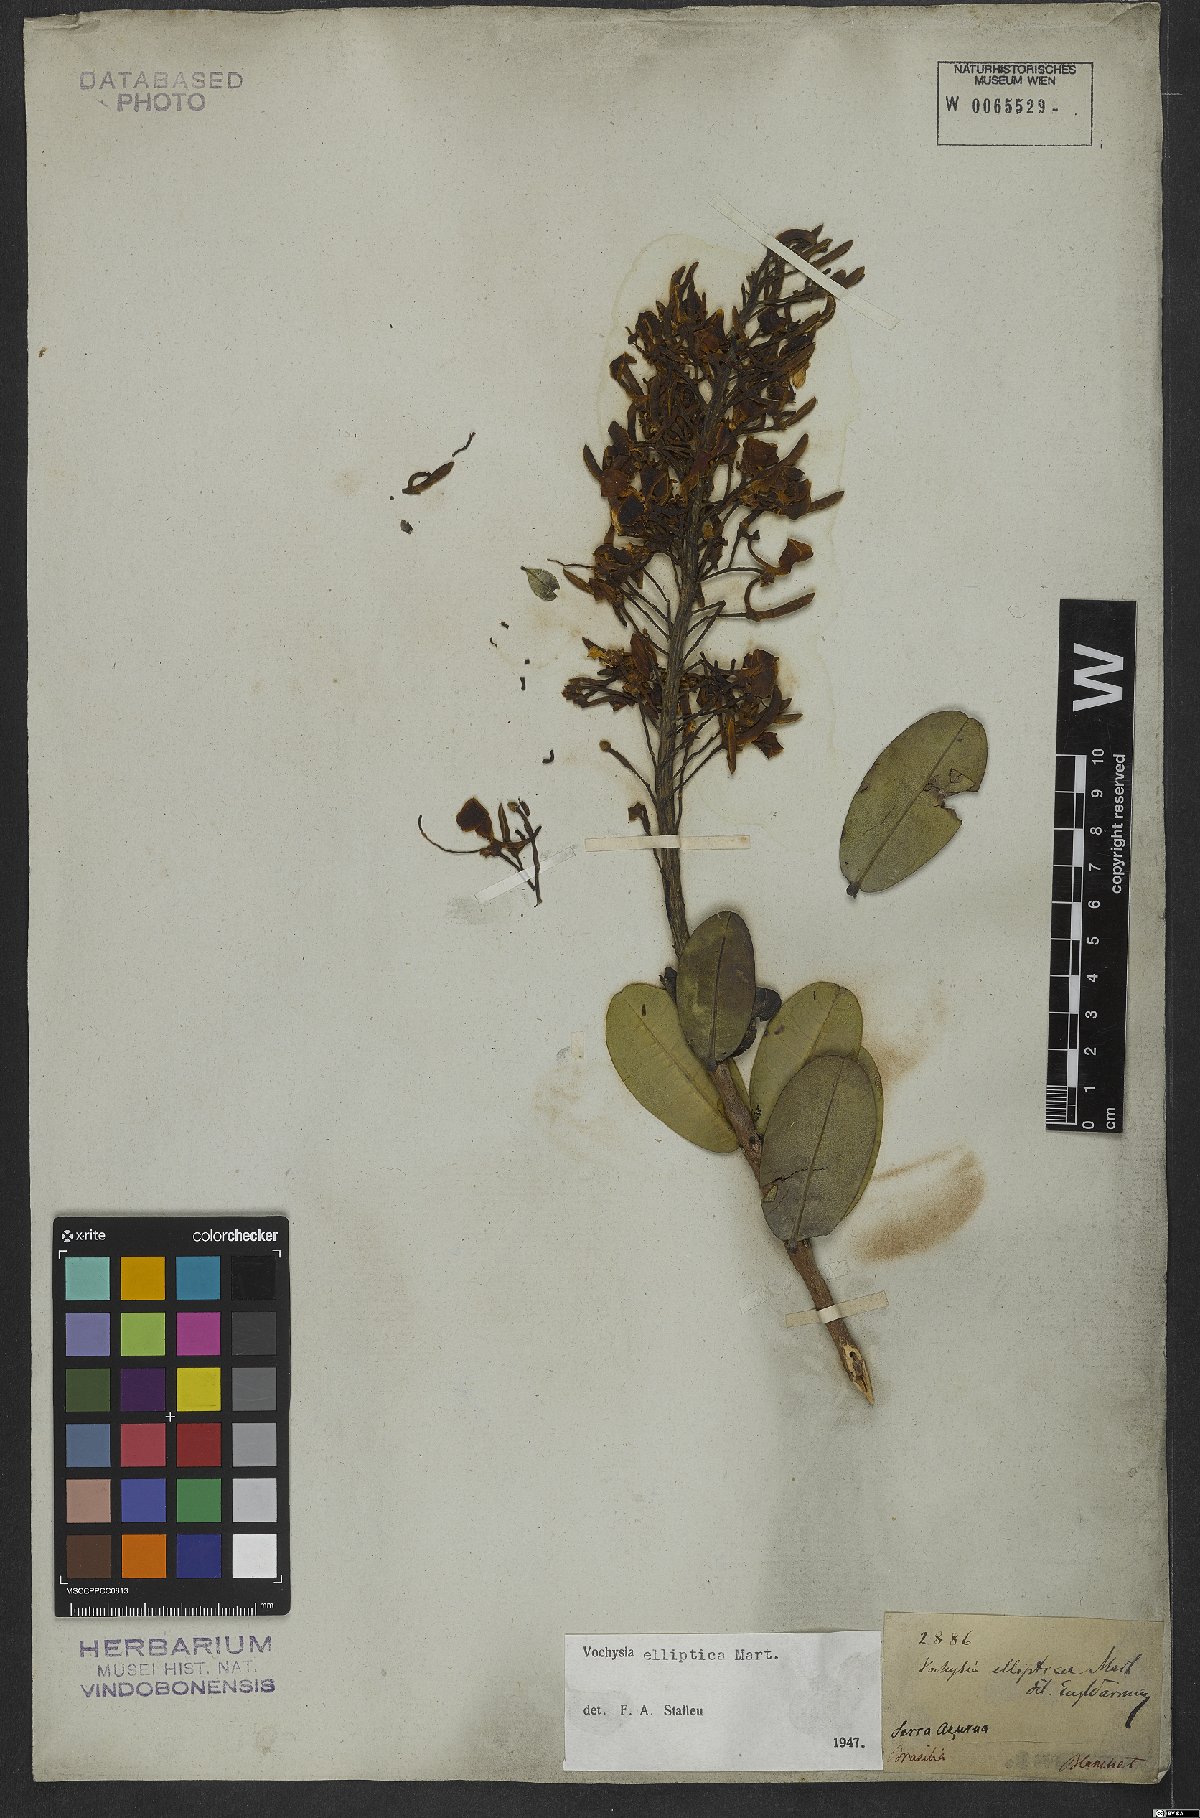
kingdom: Plantae
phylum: Tracheophyta
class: Magnoliopsida
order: Myrtales
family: Vochysiaceae
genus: Vochysia
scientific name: Vochysia elliptica
